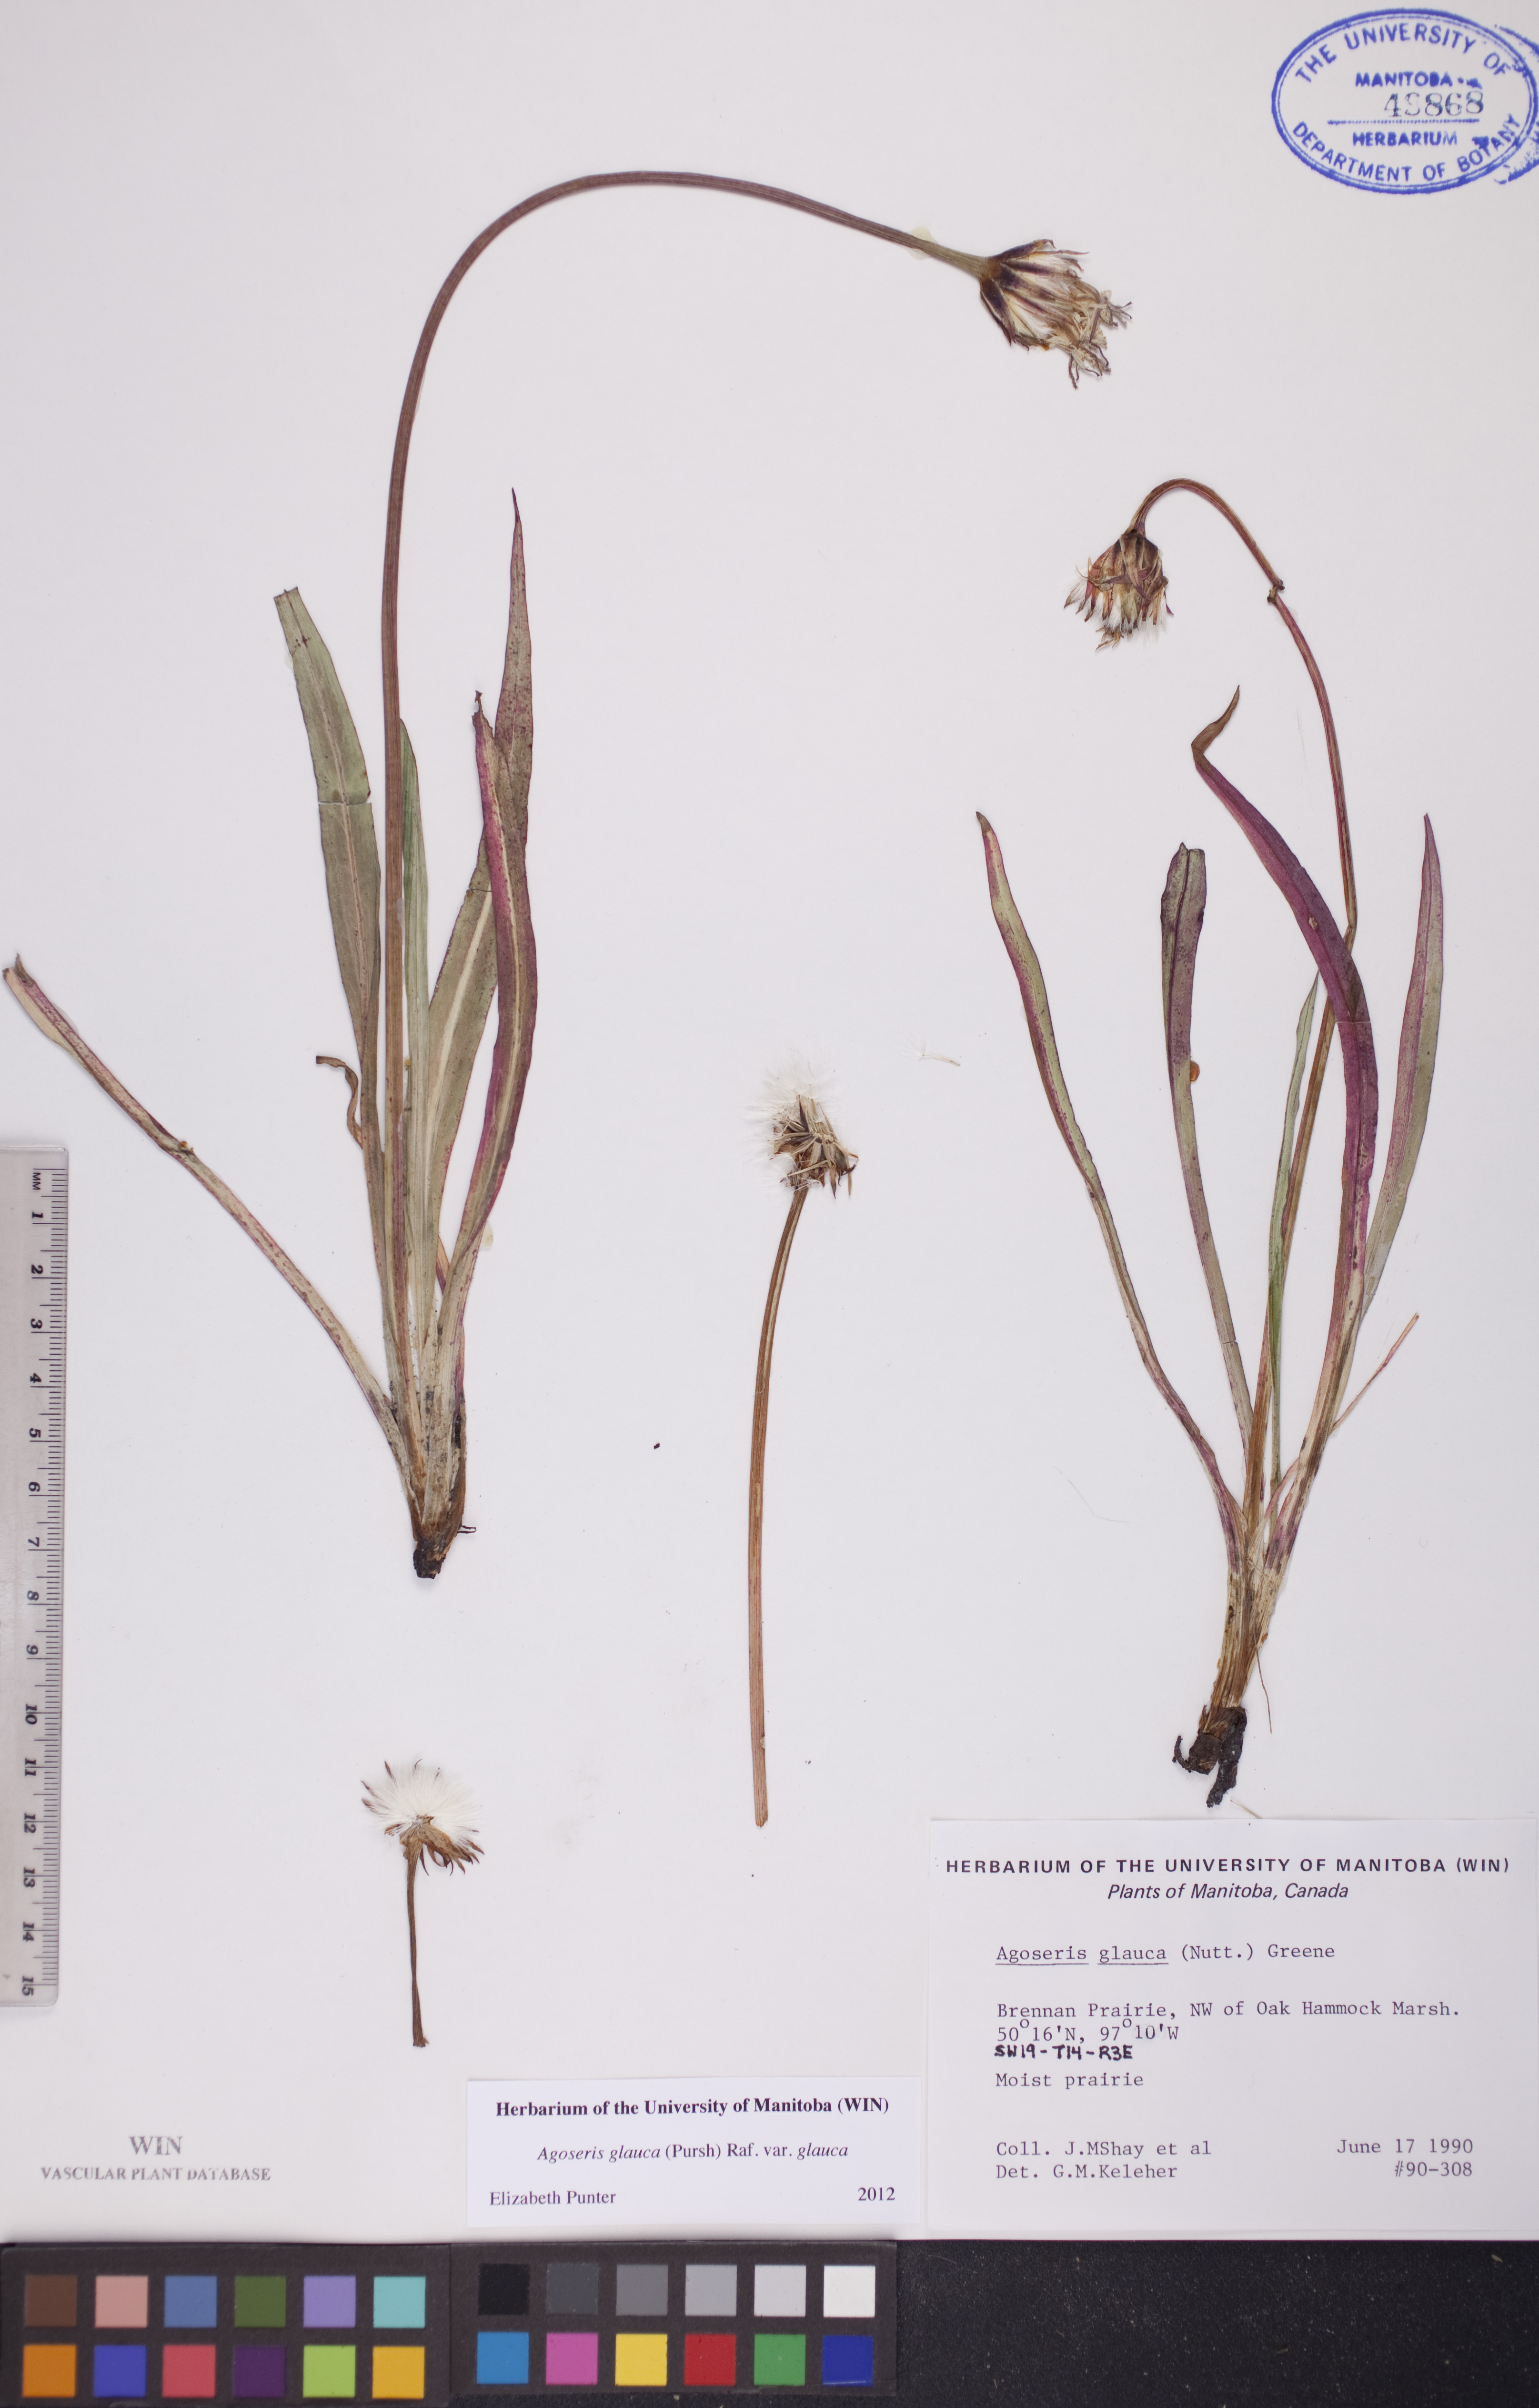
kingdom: Plantae
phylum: Tracheophyta
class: Magnoliopsida
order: Asterales
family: Asteraceae
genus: Agoseris
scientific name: Agoseris glauca
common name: Prairie agoseris
